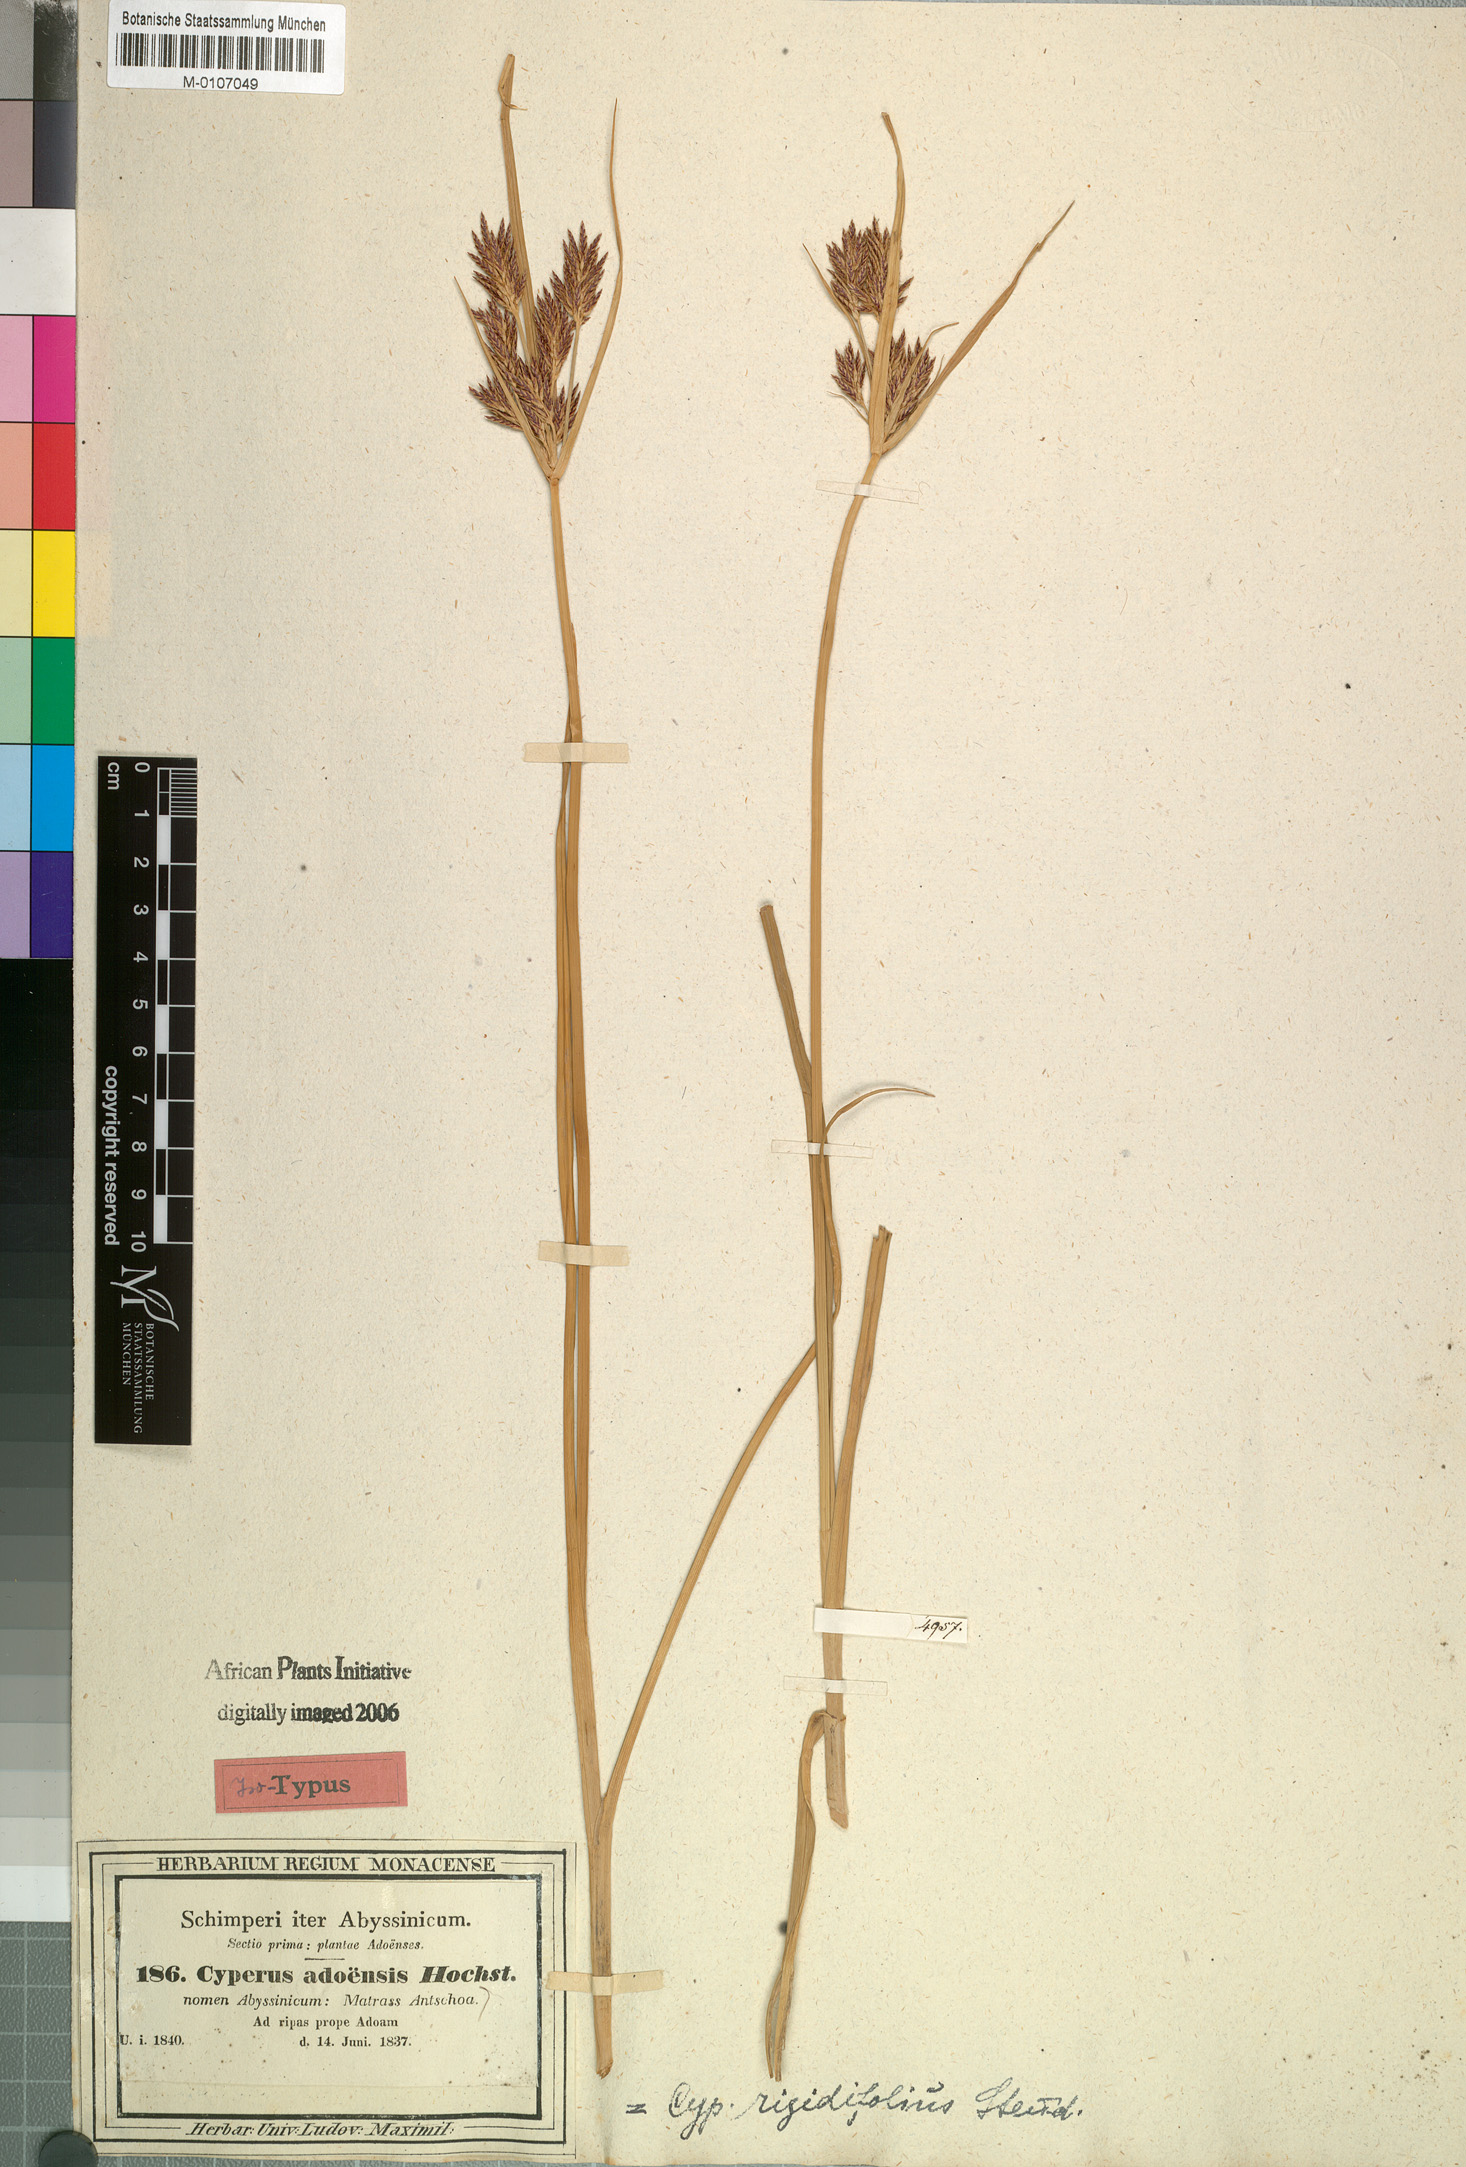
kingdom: Plantae
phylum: Tracheophyta
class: Liliopsida
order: Poales
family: Cyperaceae
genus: Cyperus
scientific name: Cyperus rigidifolius
